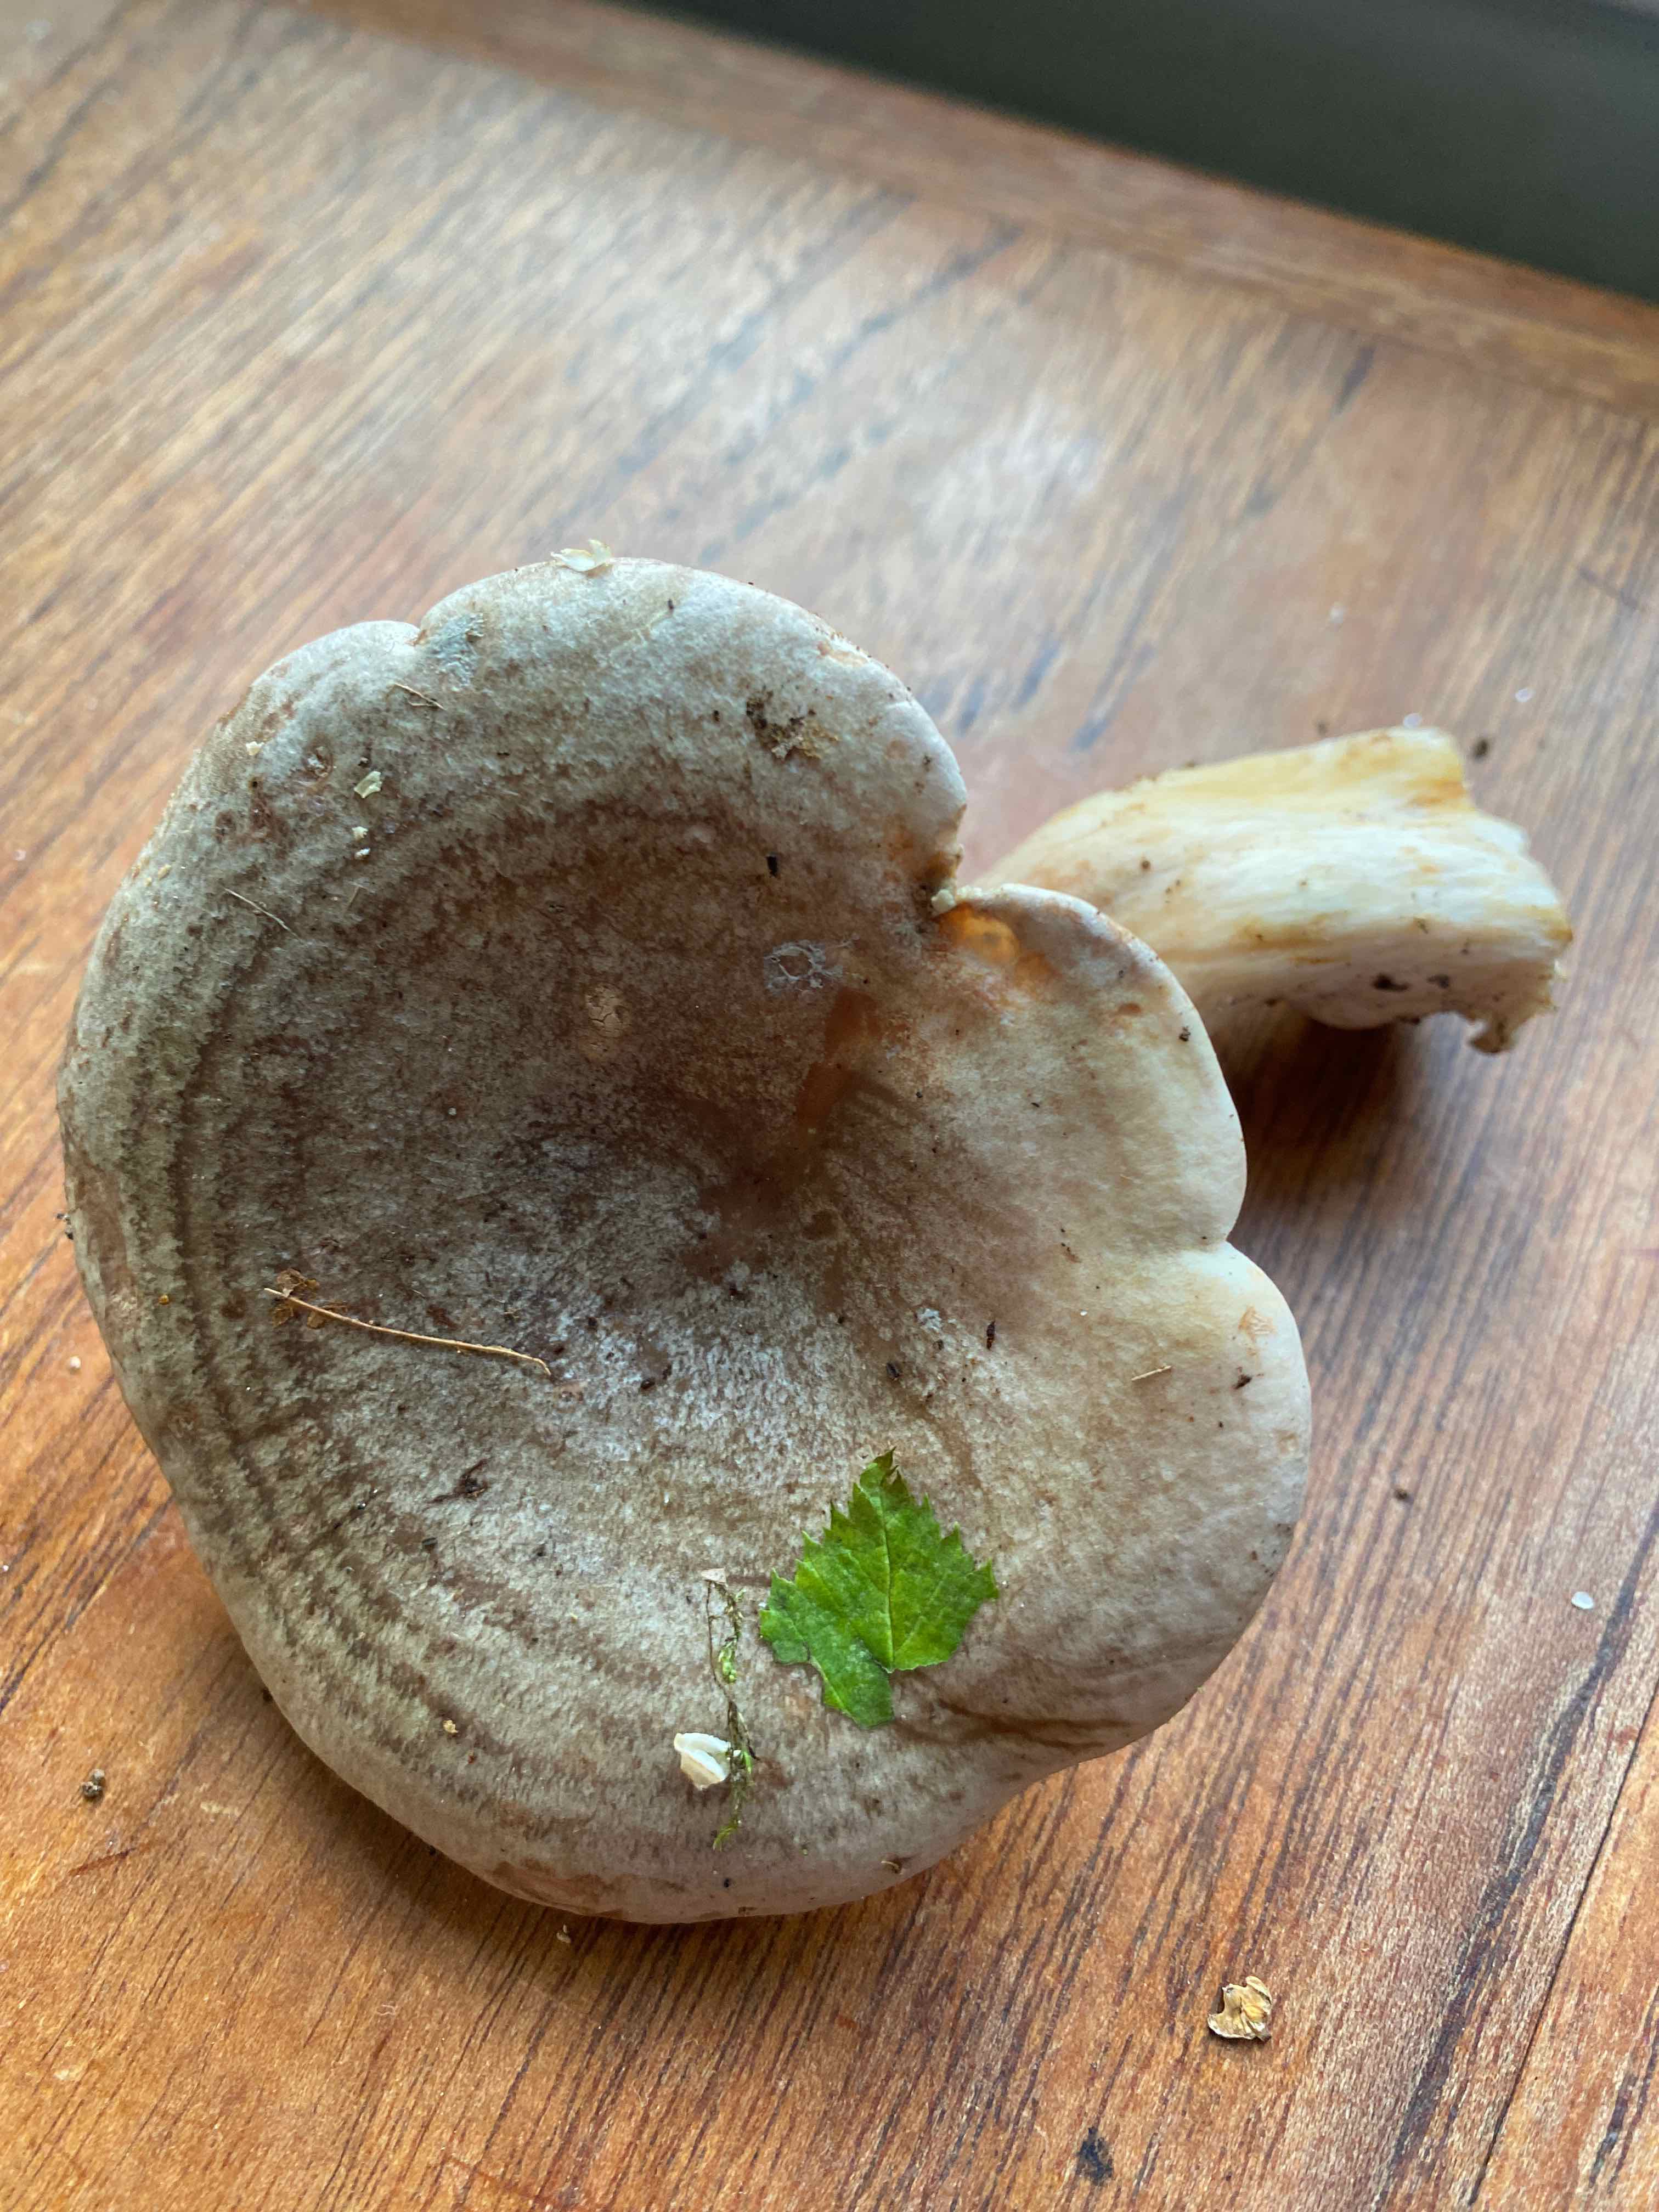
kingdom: Fungi
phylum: Basidiomycota
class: Agaricomycetes
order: Russulales
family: Russulaceae
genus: Lactarius
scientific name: Lactarius
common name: mælkehat
